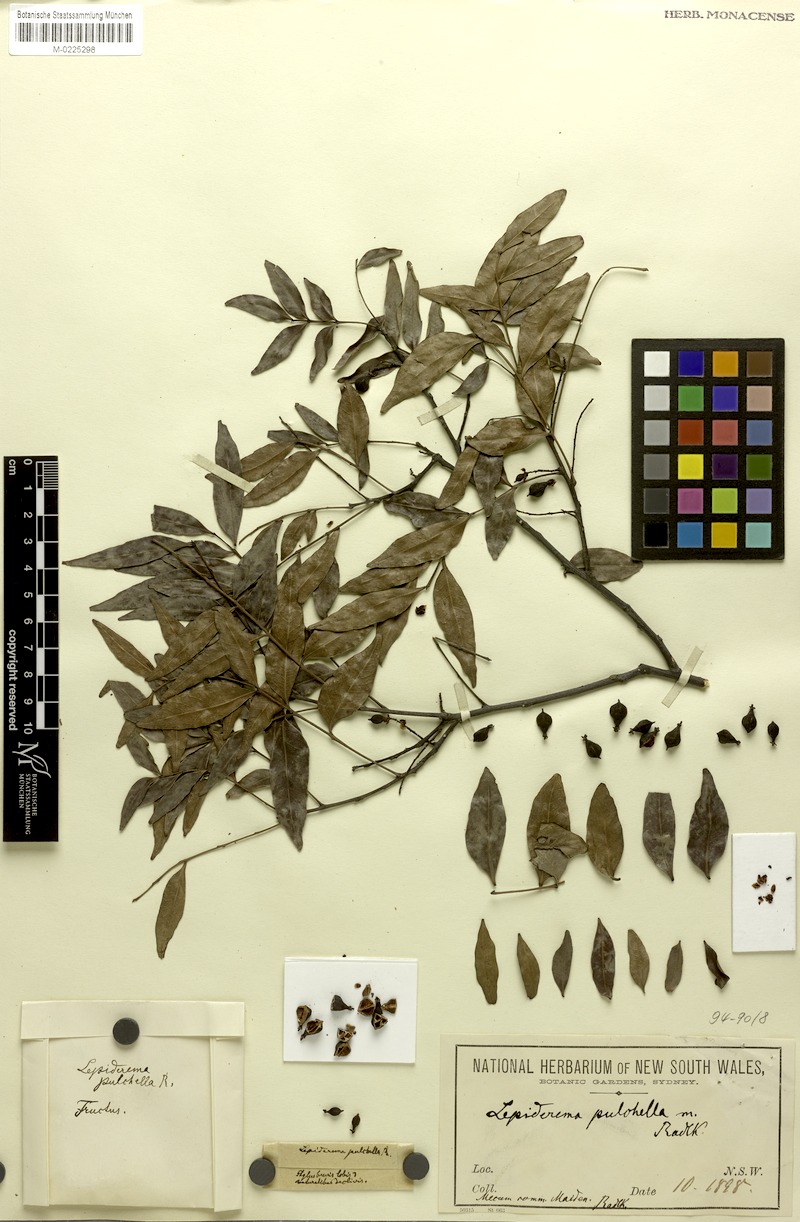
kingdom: Plantae
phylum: Tracheophyta
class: Magnoliopsida
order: Sapindales
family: Sapindaceae
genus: Lepiderema
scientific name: Lepiderema pulchella
